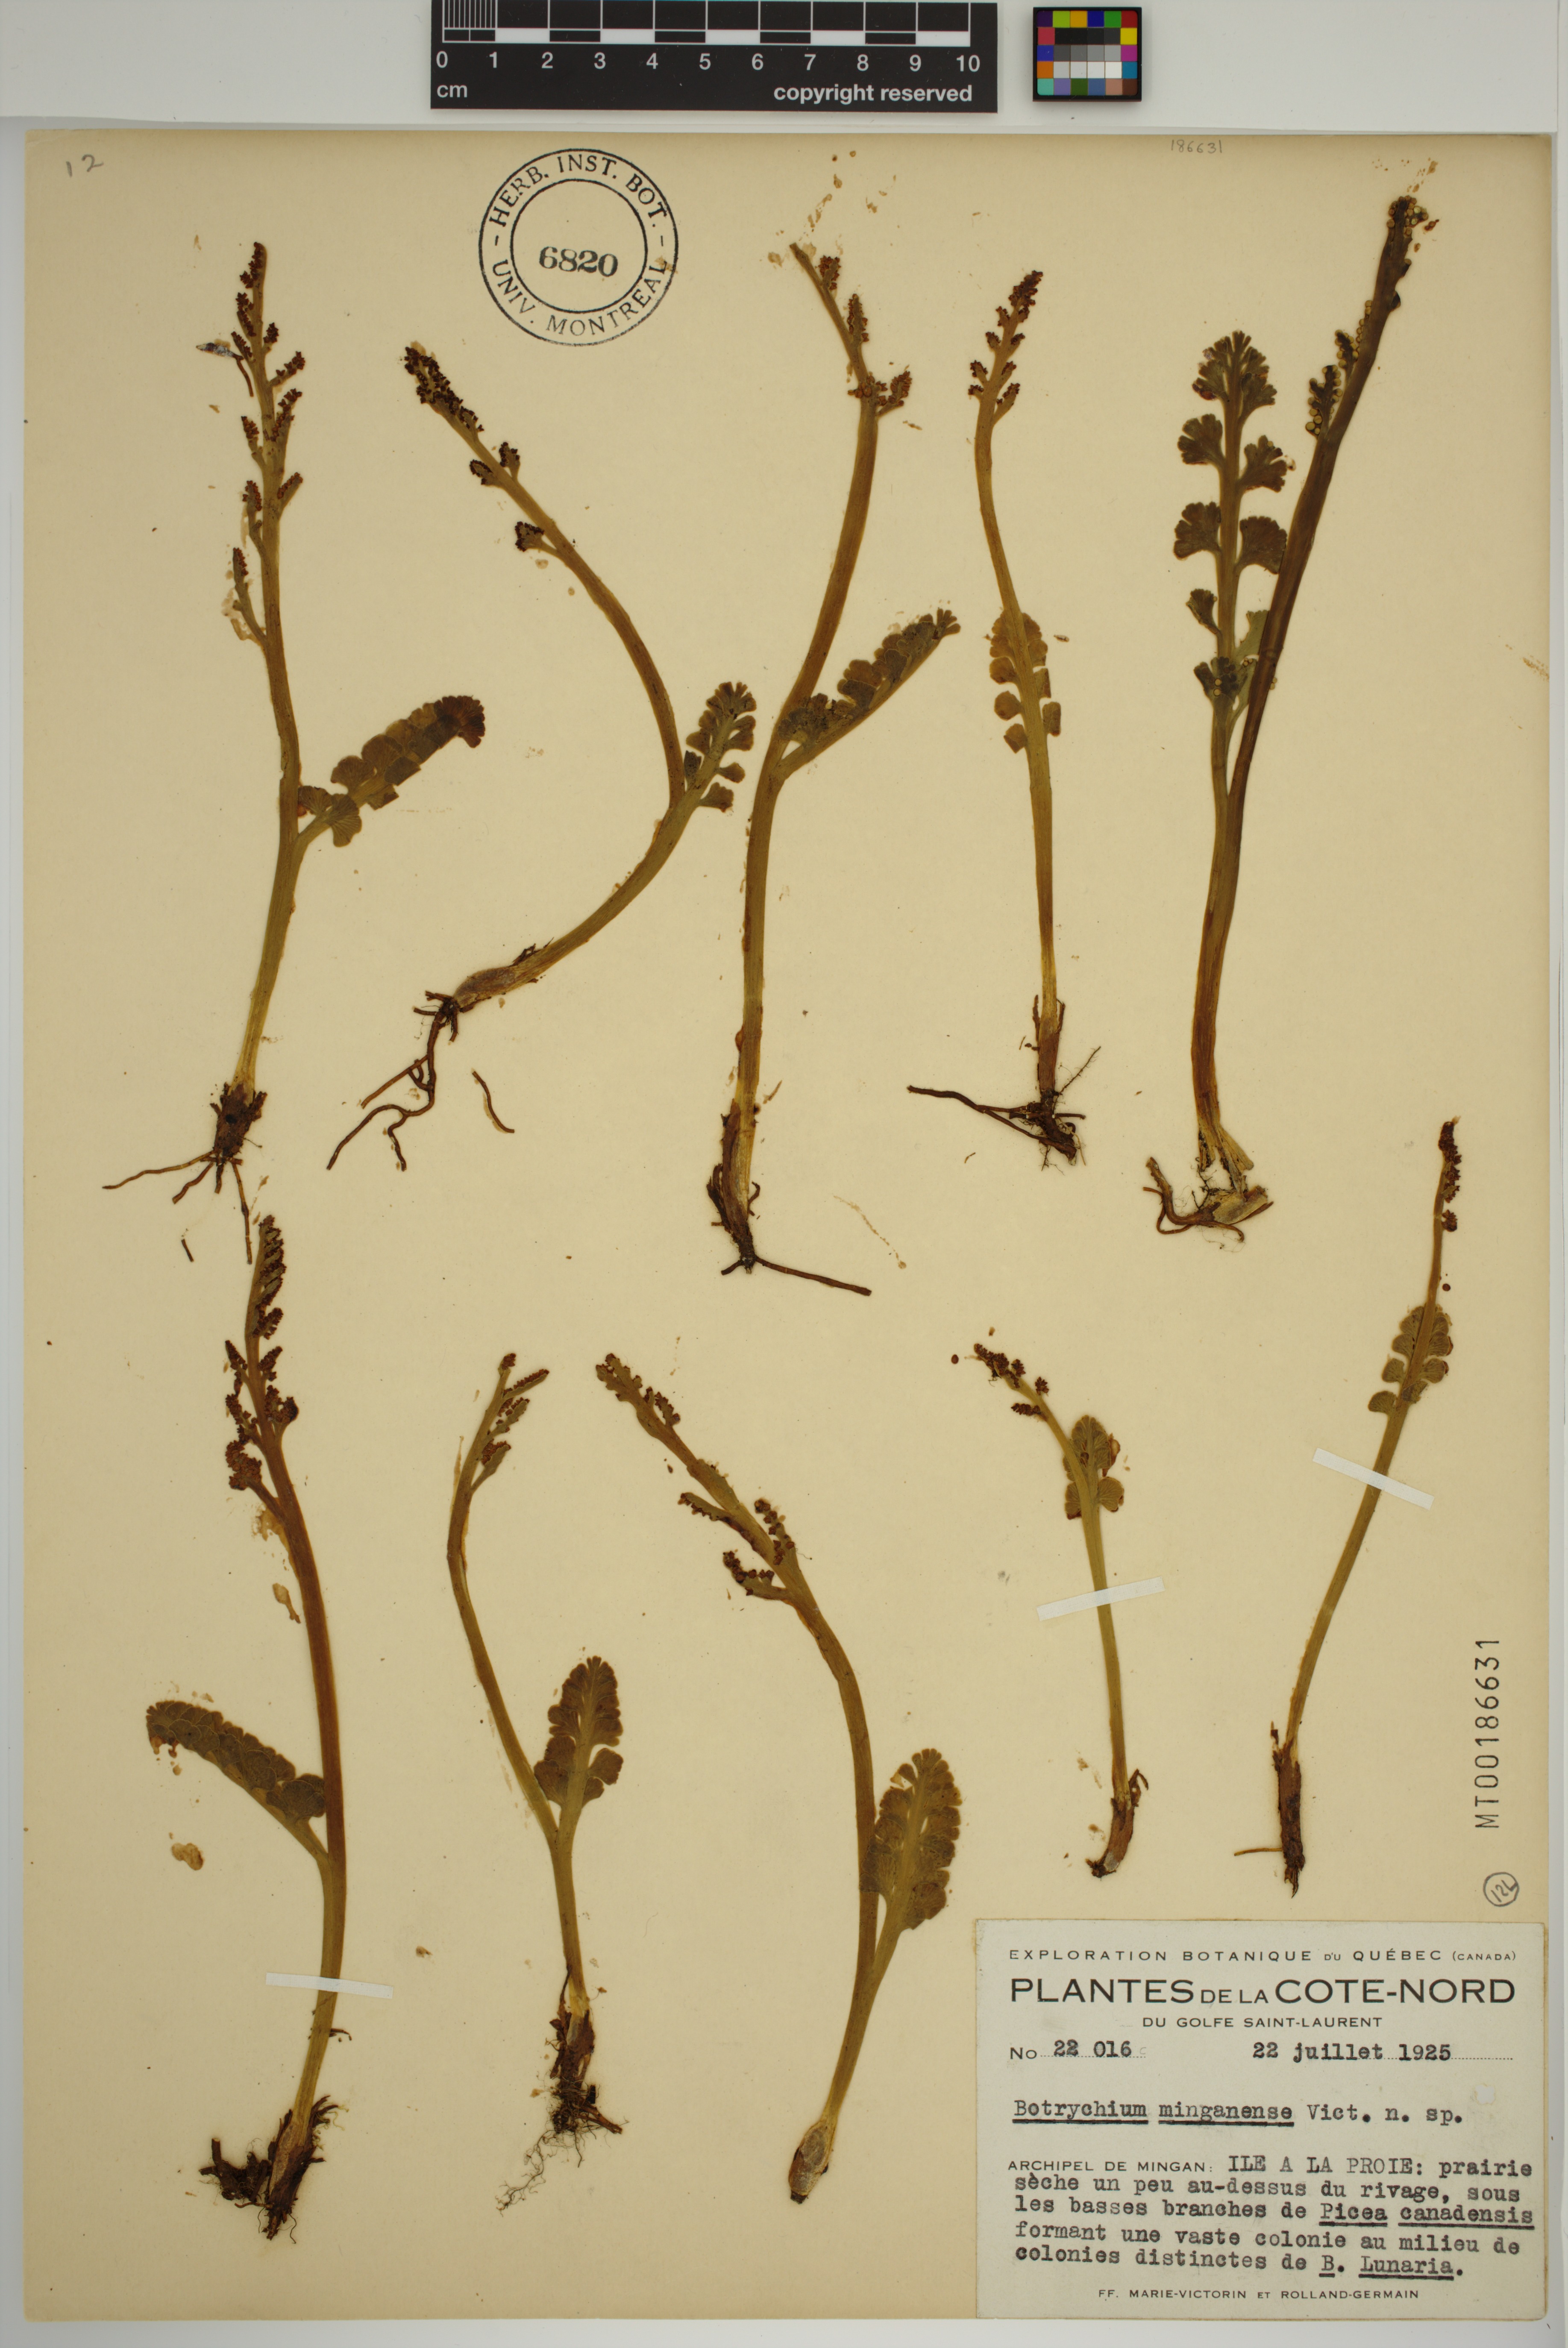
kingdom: Plantae
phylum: Tracheophyta
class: Polypodiopsida
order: Ophioglossales
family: Ophioglossaceae
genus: Botrychium
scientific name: Botrychium minganense
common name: Mingan grapefern
